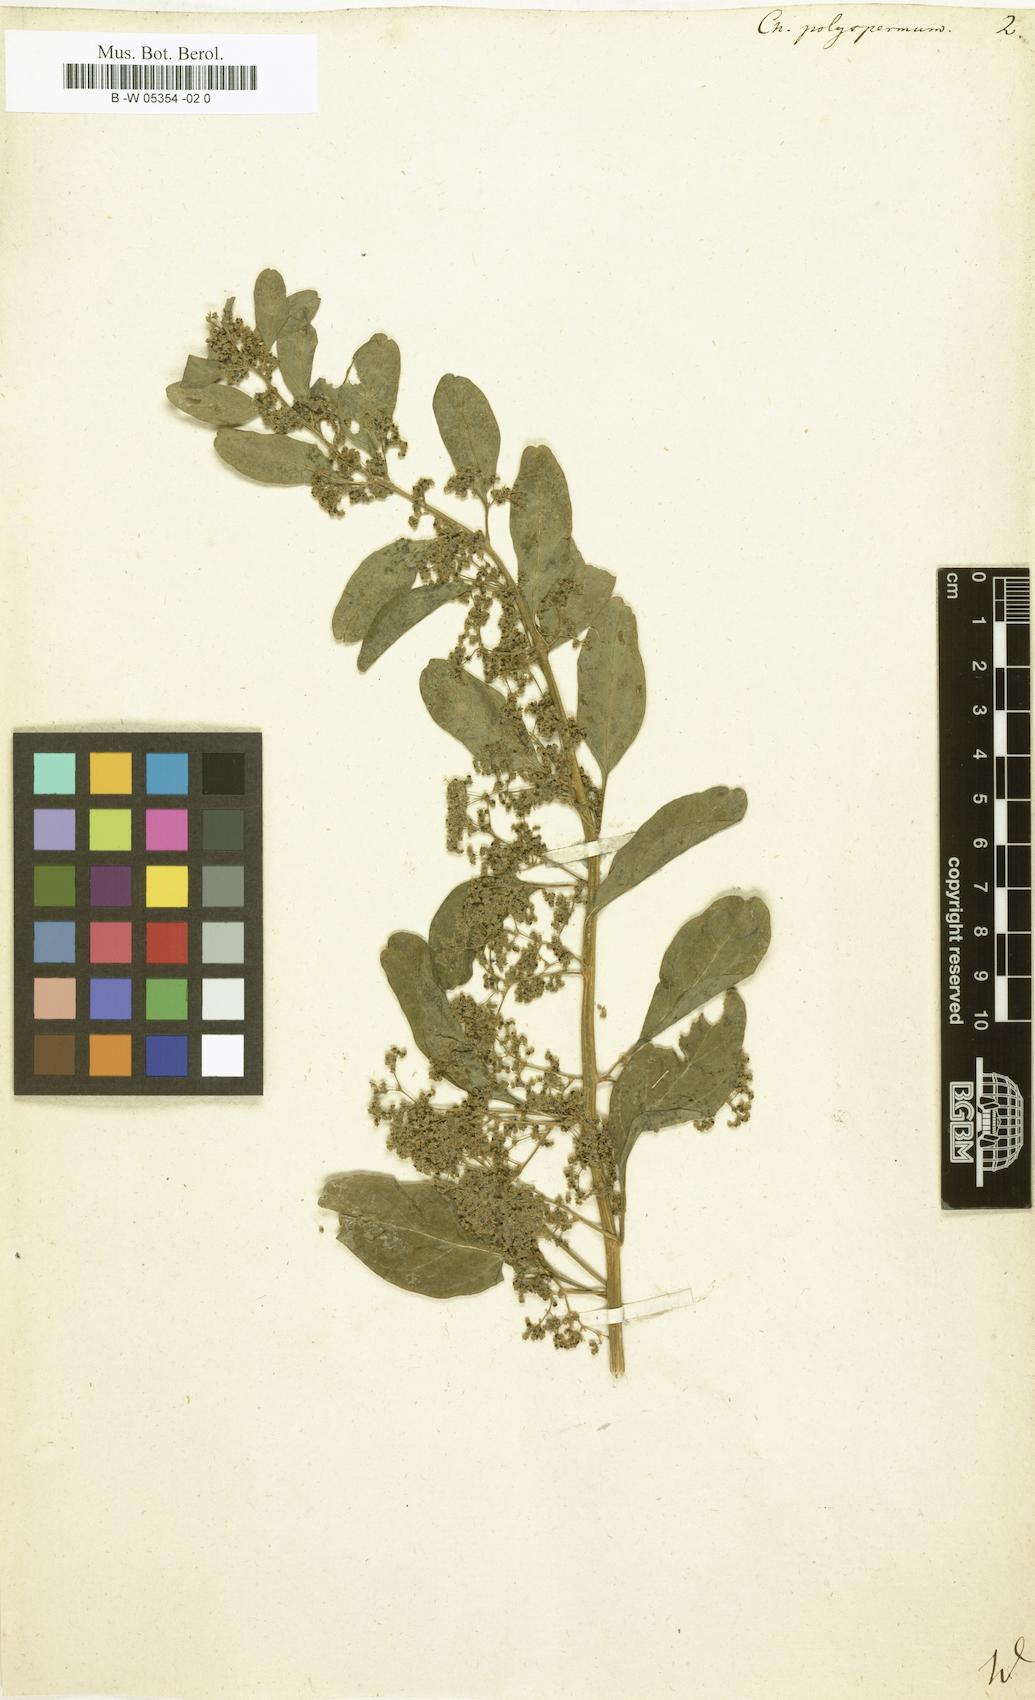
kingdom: Plantae
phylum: Tracheophyta
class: Magnoliopsida
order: Caryophyllales
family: Amaranthaceae
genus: Lipandra
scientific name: Lipandra polysperma
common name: Many-seed goosefoot
